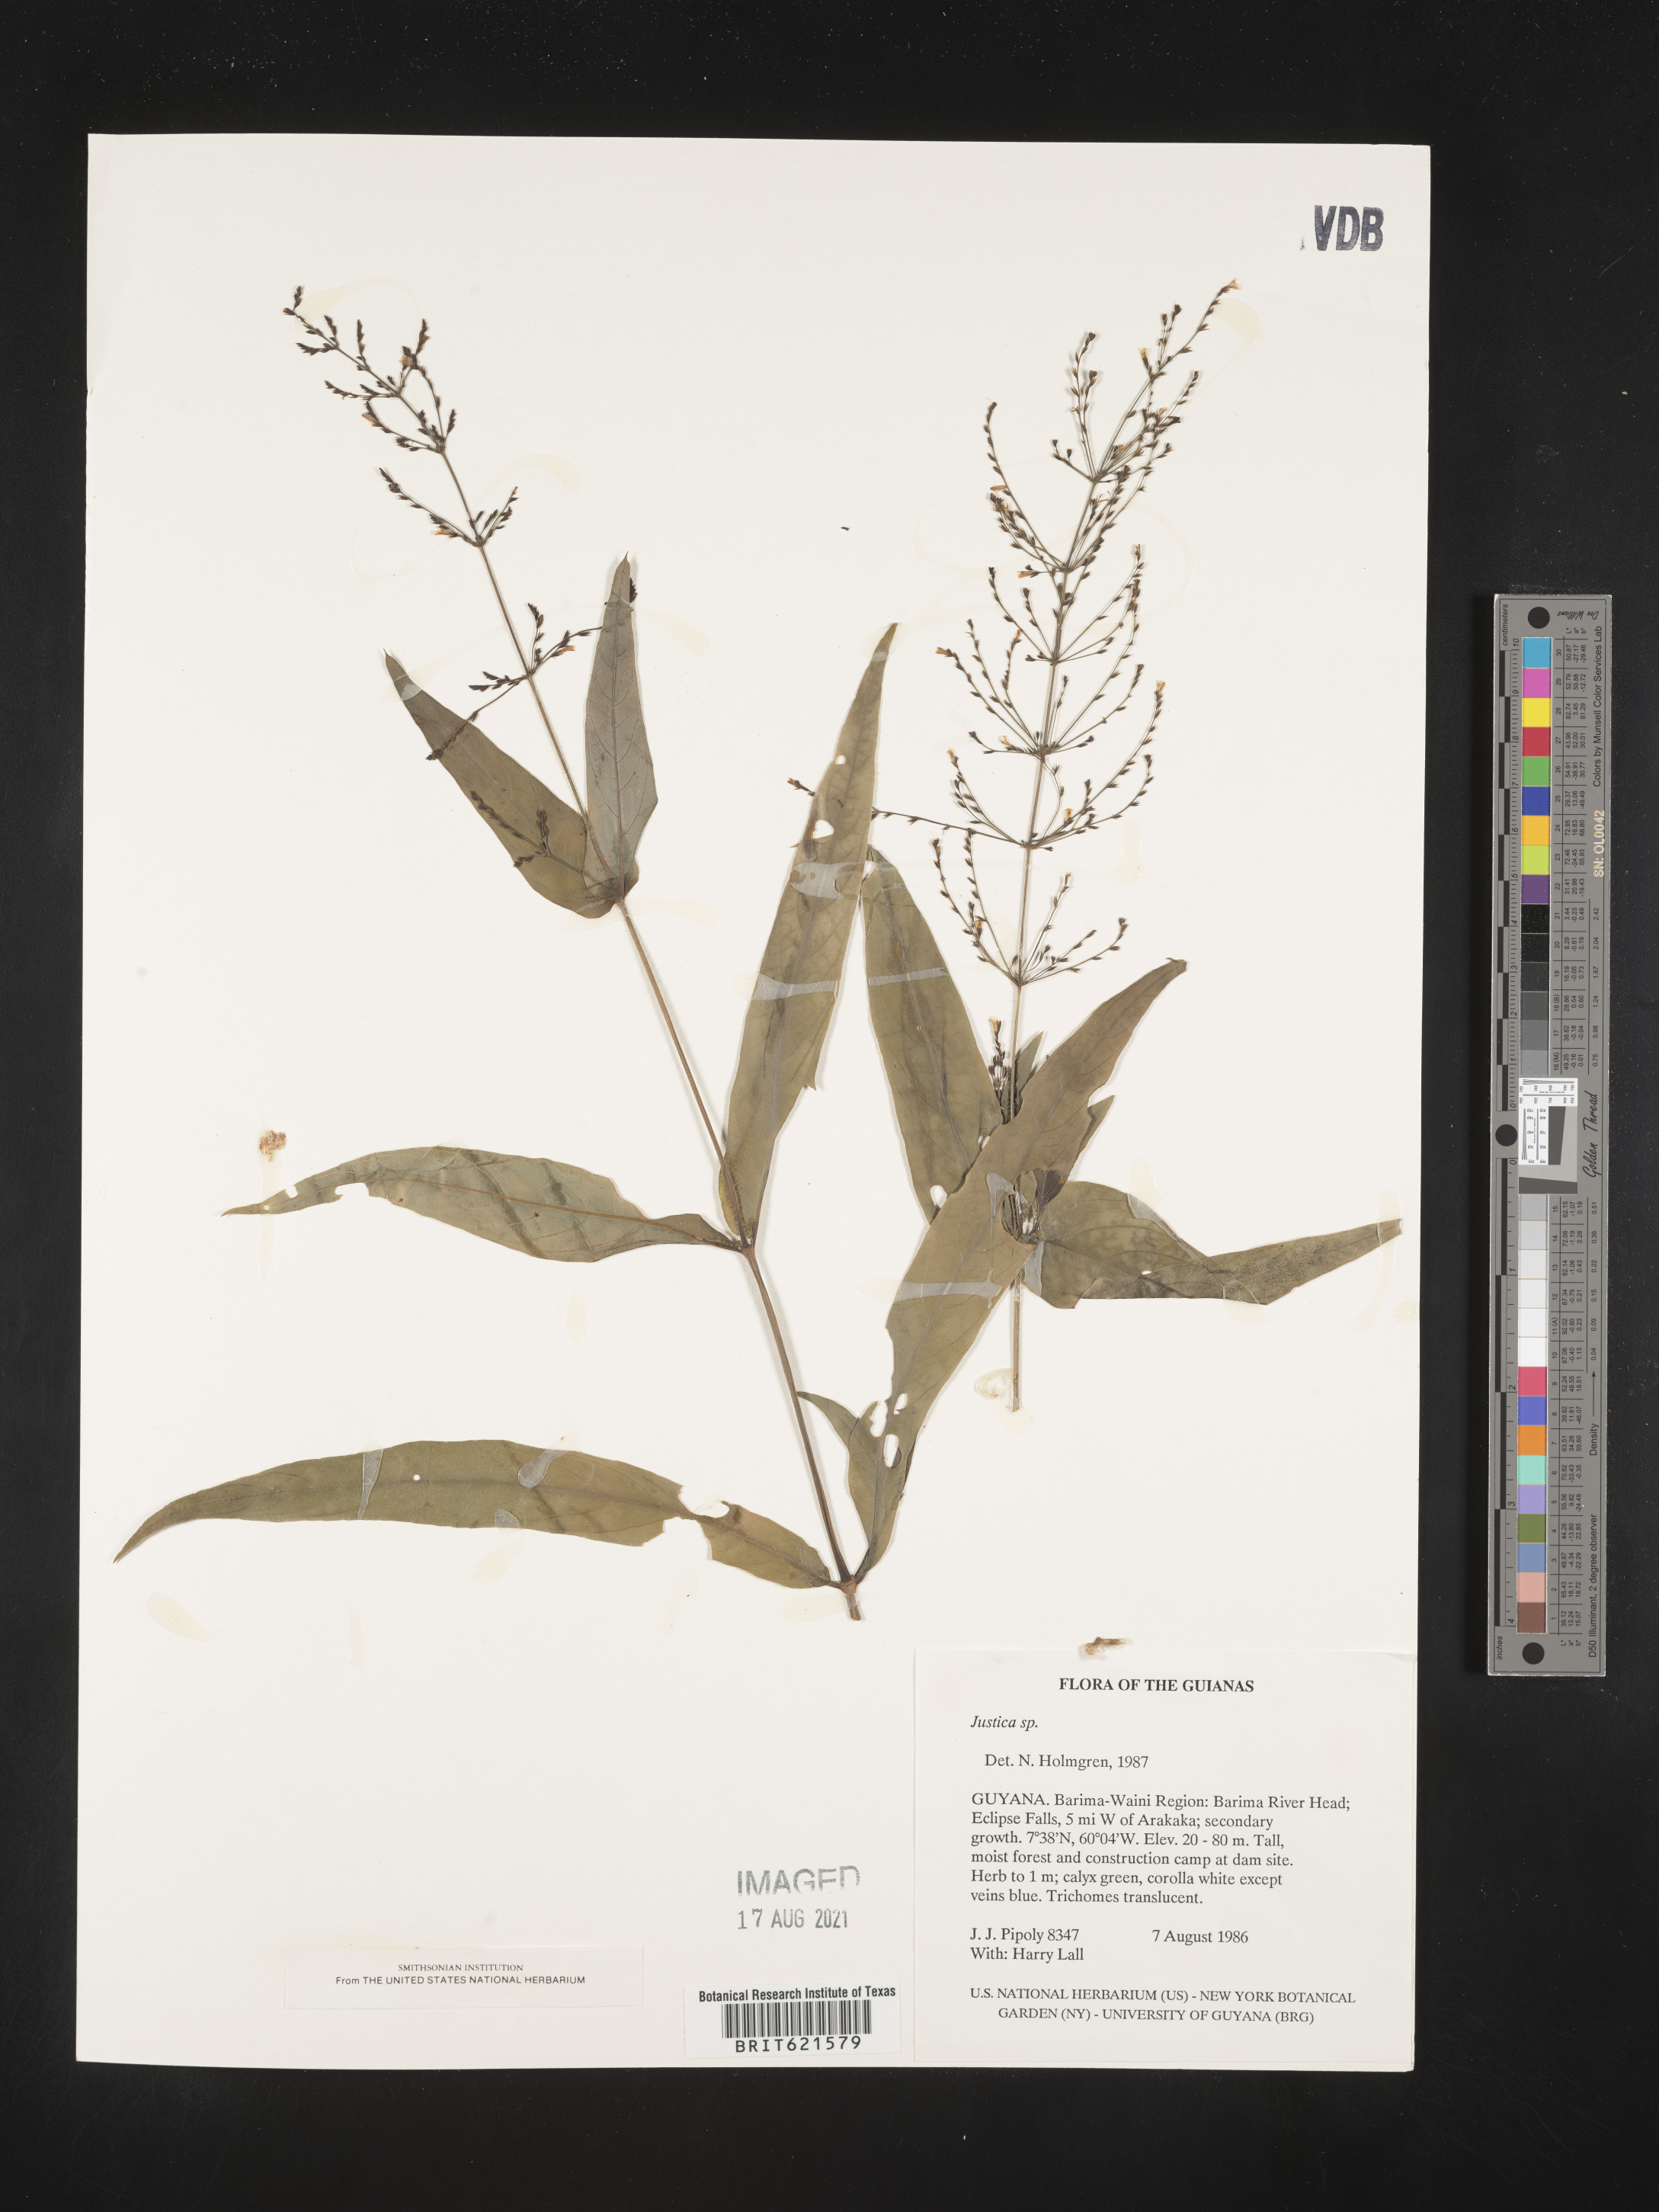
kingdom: Plantae
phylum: Tracheophyta
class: Magnoliopsida
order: Lamiales
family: Acanthaceae
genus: Justicia
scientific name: Justicia
